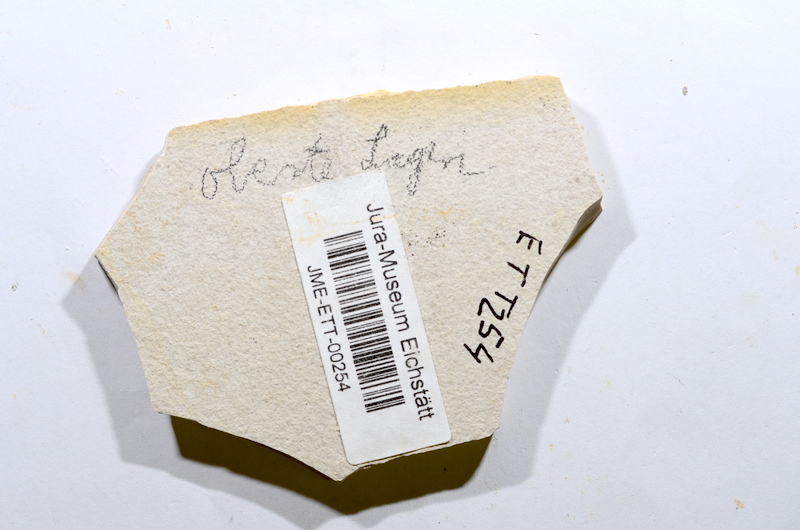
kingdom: Animalia
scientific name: Animalia
